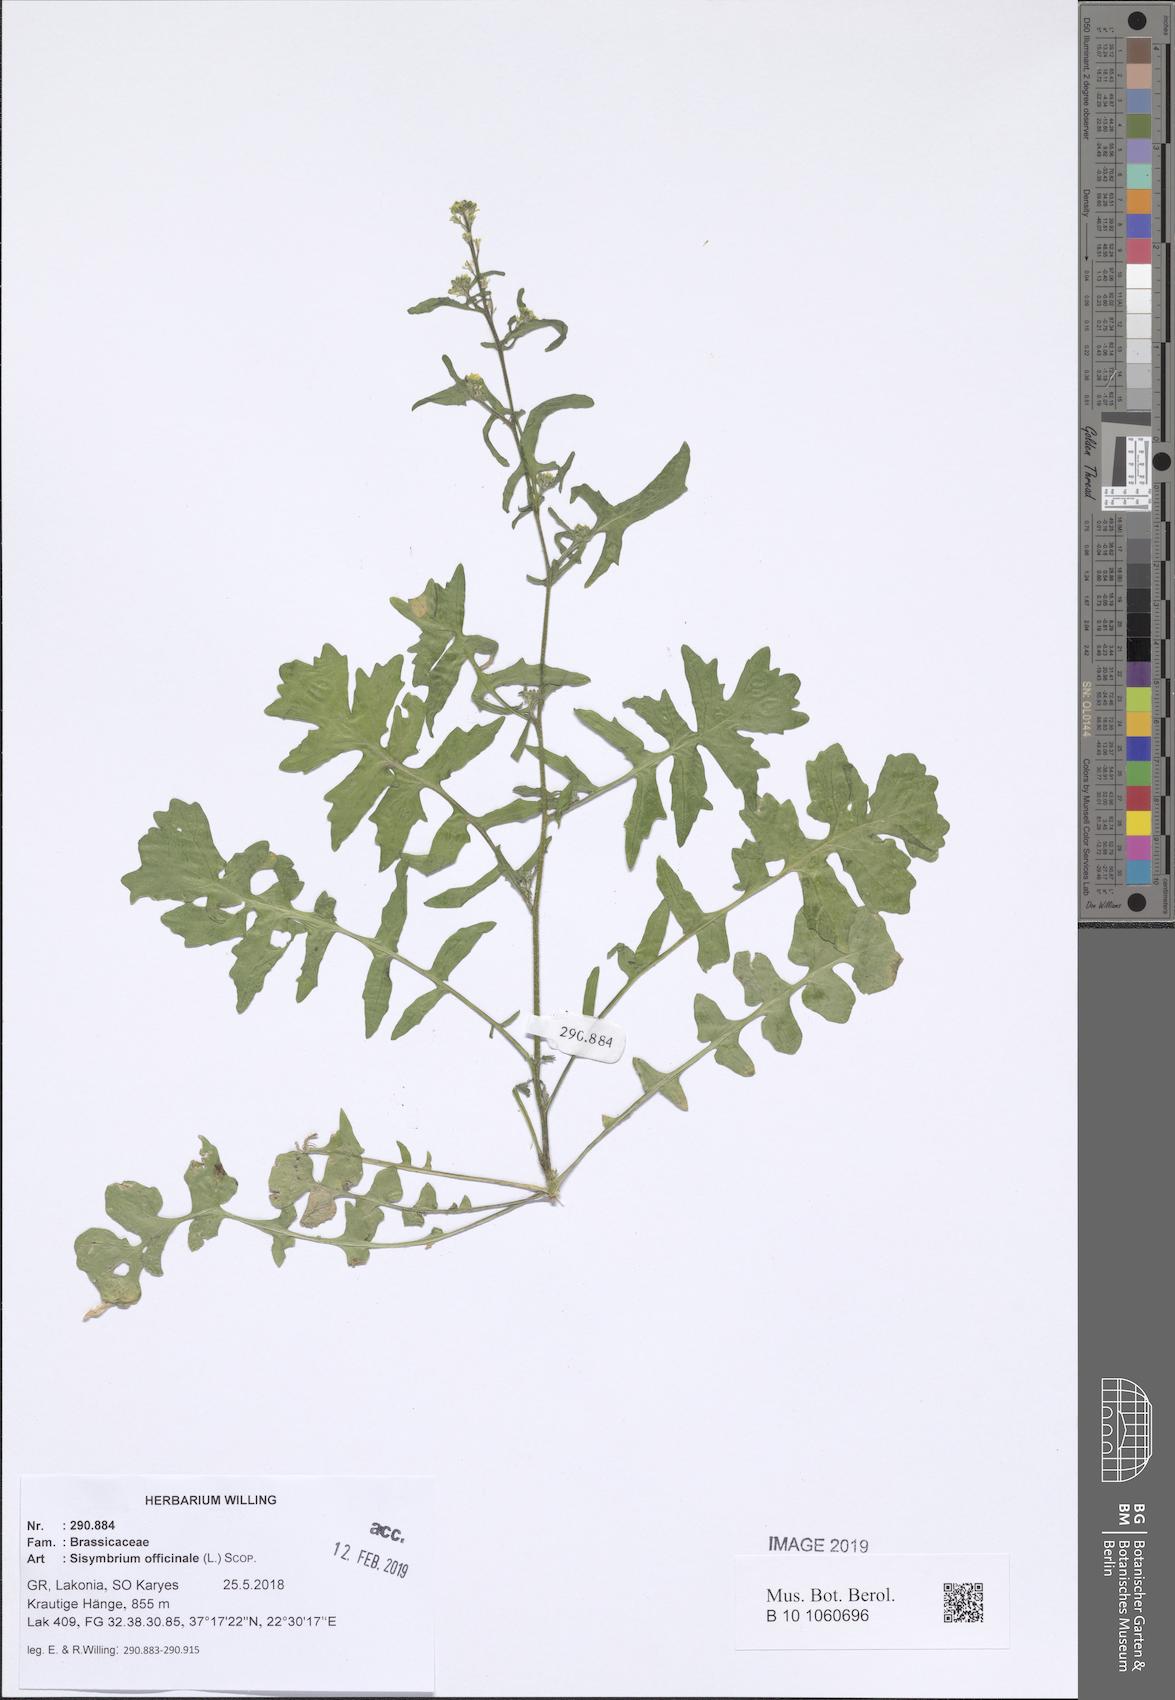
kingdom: Plantae
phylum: Tracheophyta
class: Magnoliopsida
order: Brassicales
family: Brassicaceae
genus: Sisymbrium
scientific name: Sisymbrium officinale
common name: Hedge mustard
